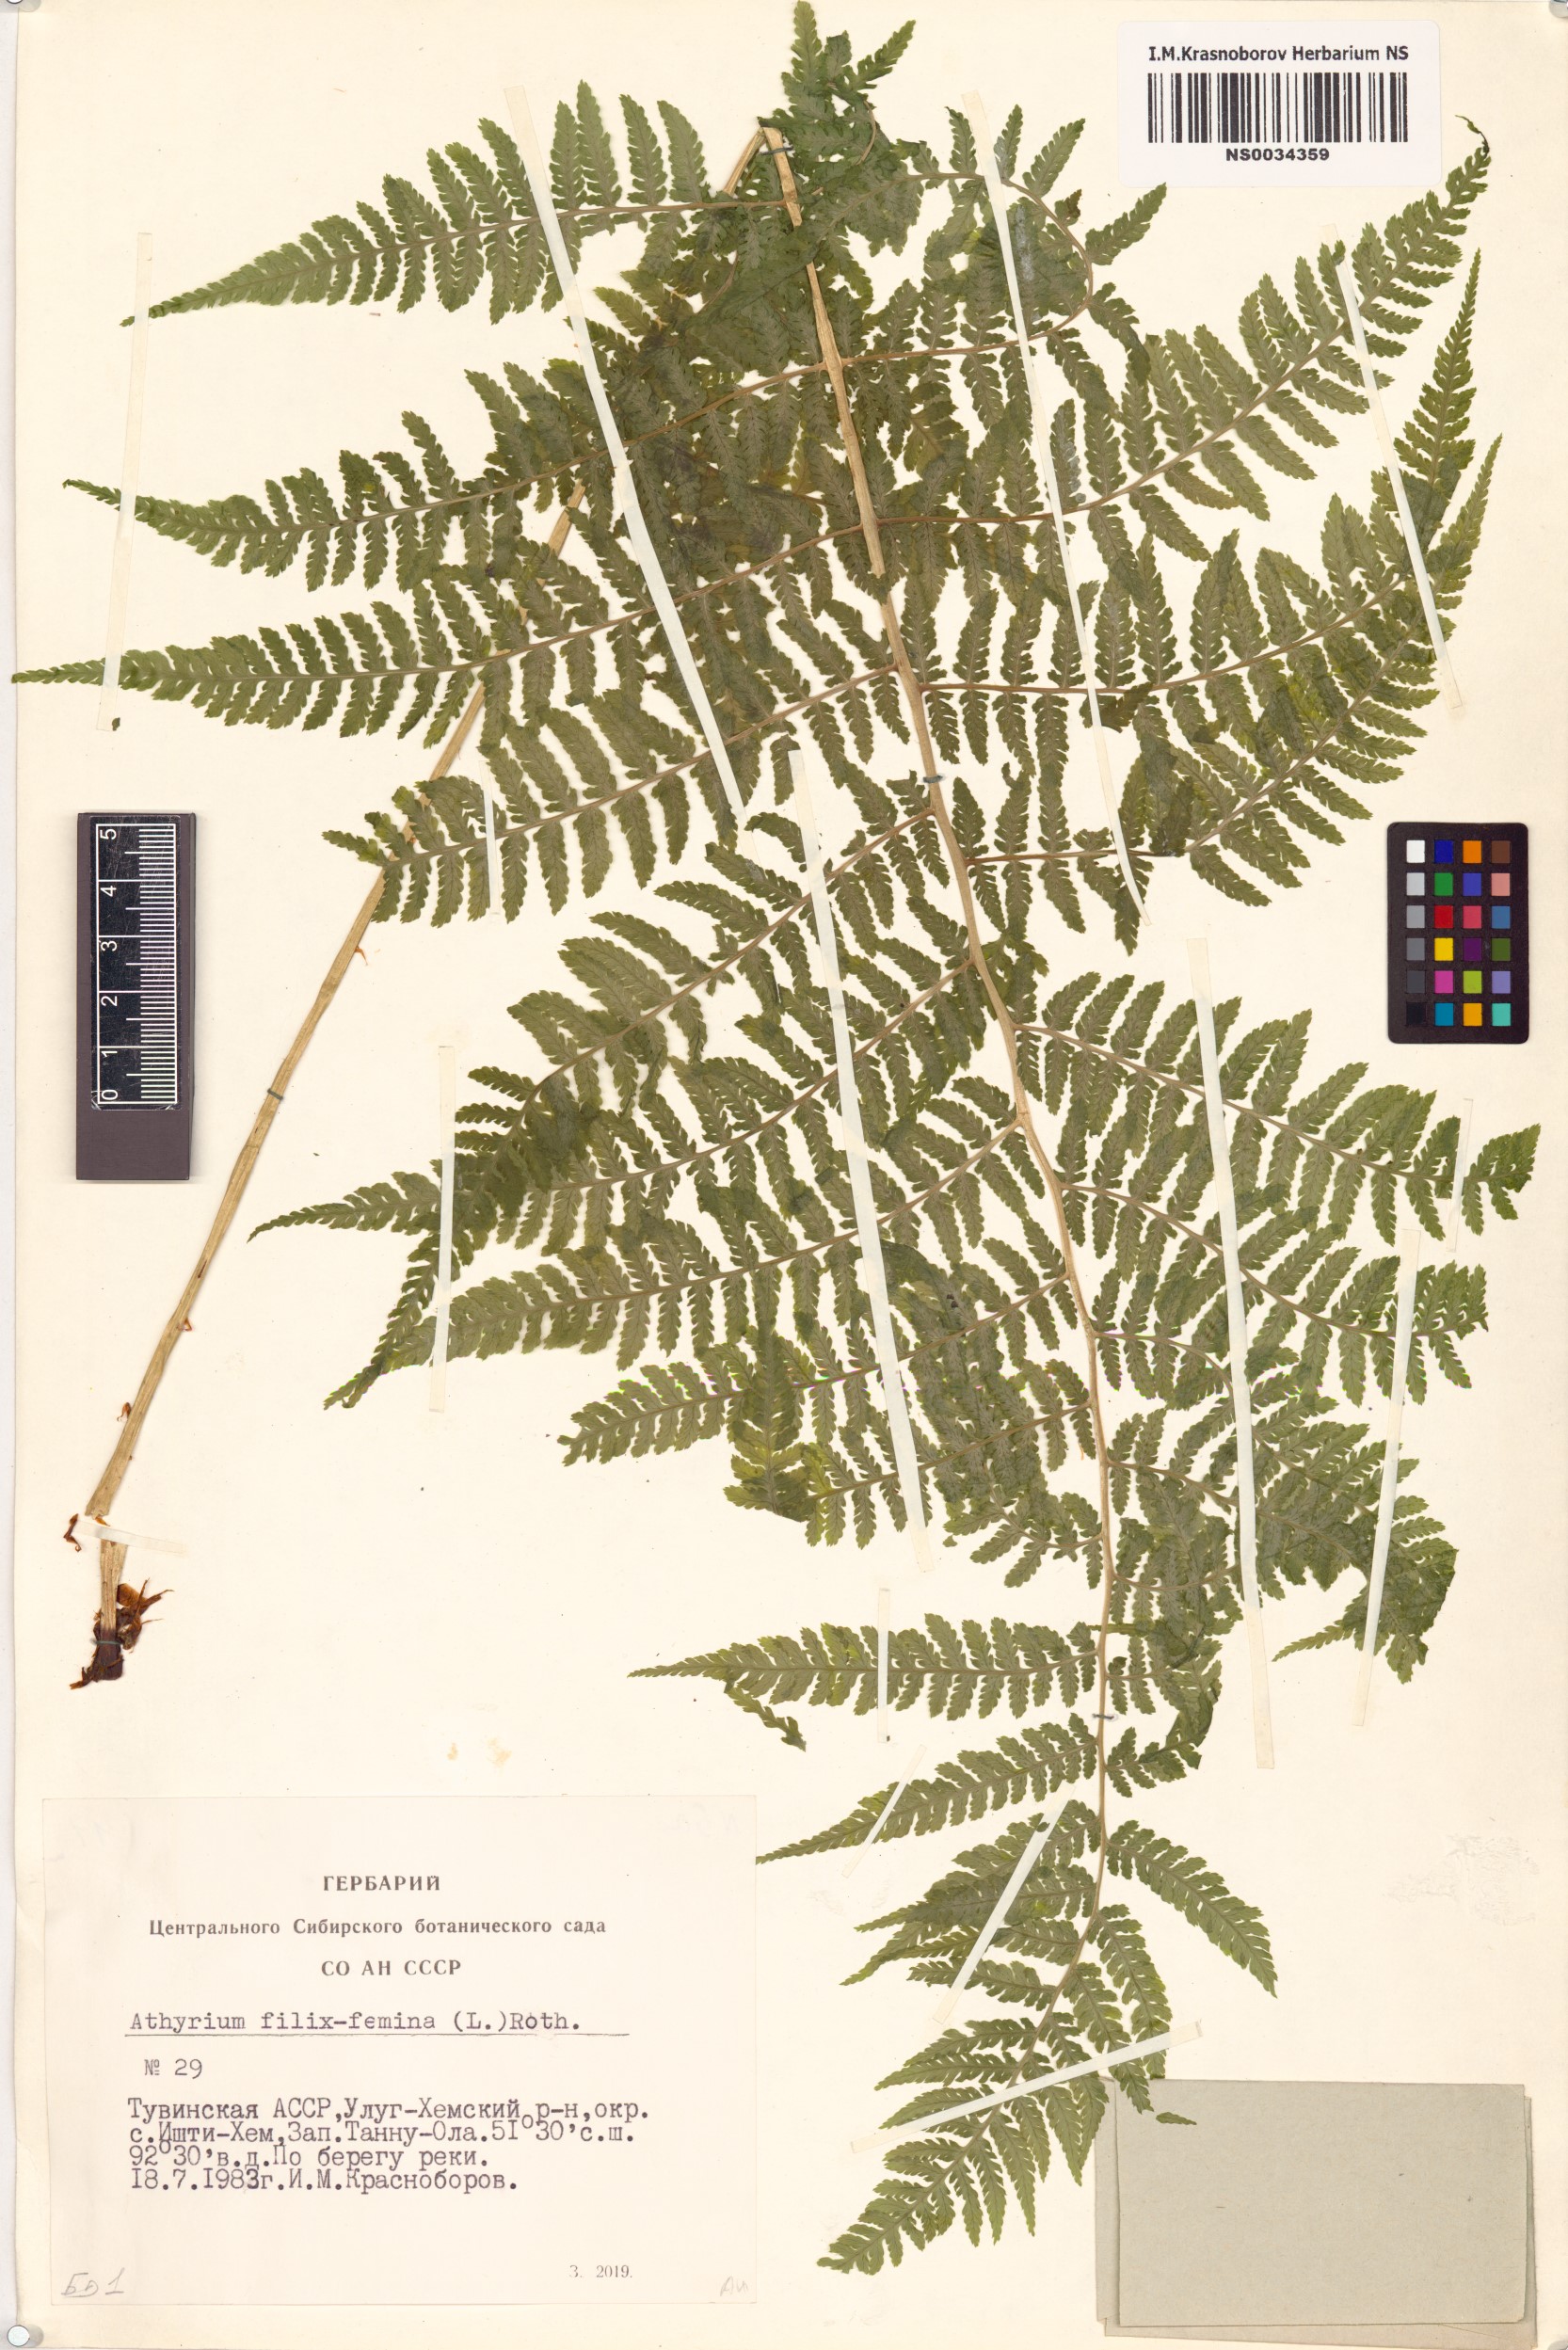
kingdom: Plantae
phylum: Tracheophyta
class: Polypodiopsida
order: Polypodiales
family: Athyriaceae
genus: Athyrium
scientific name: Athyrium filix-femina
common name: Lady fern
